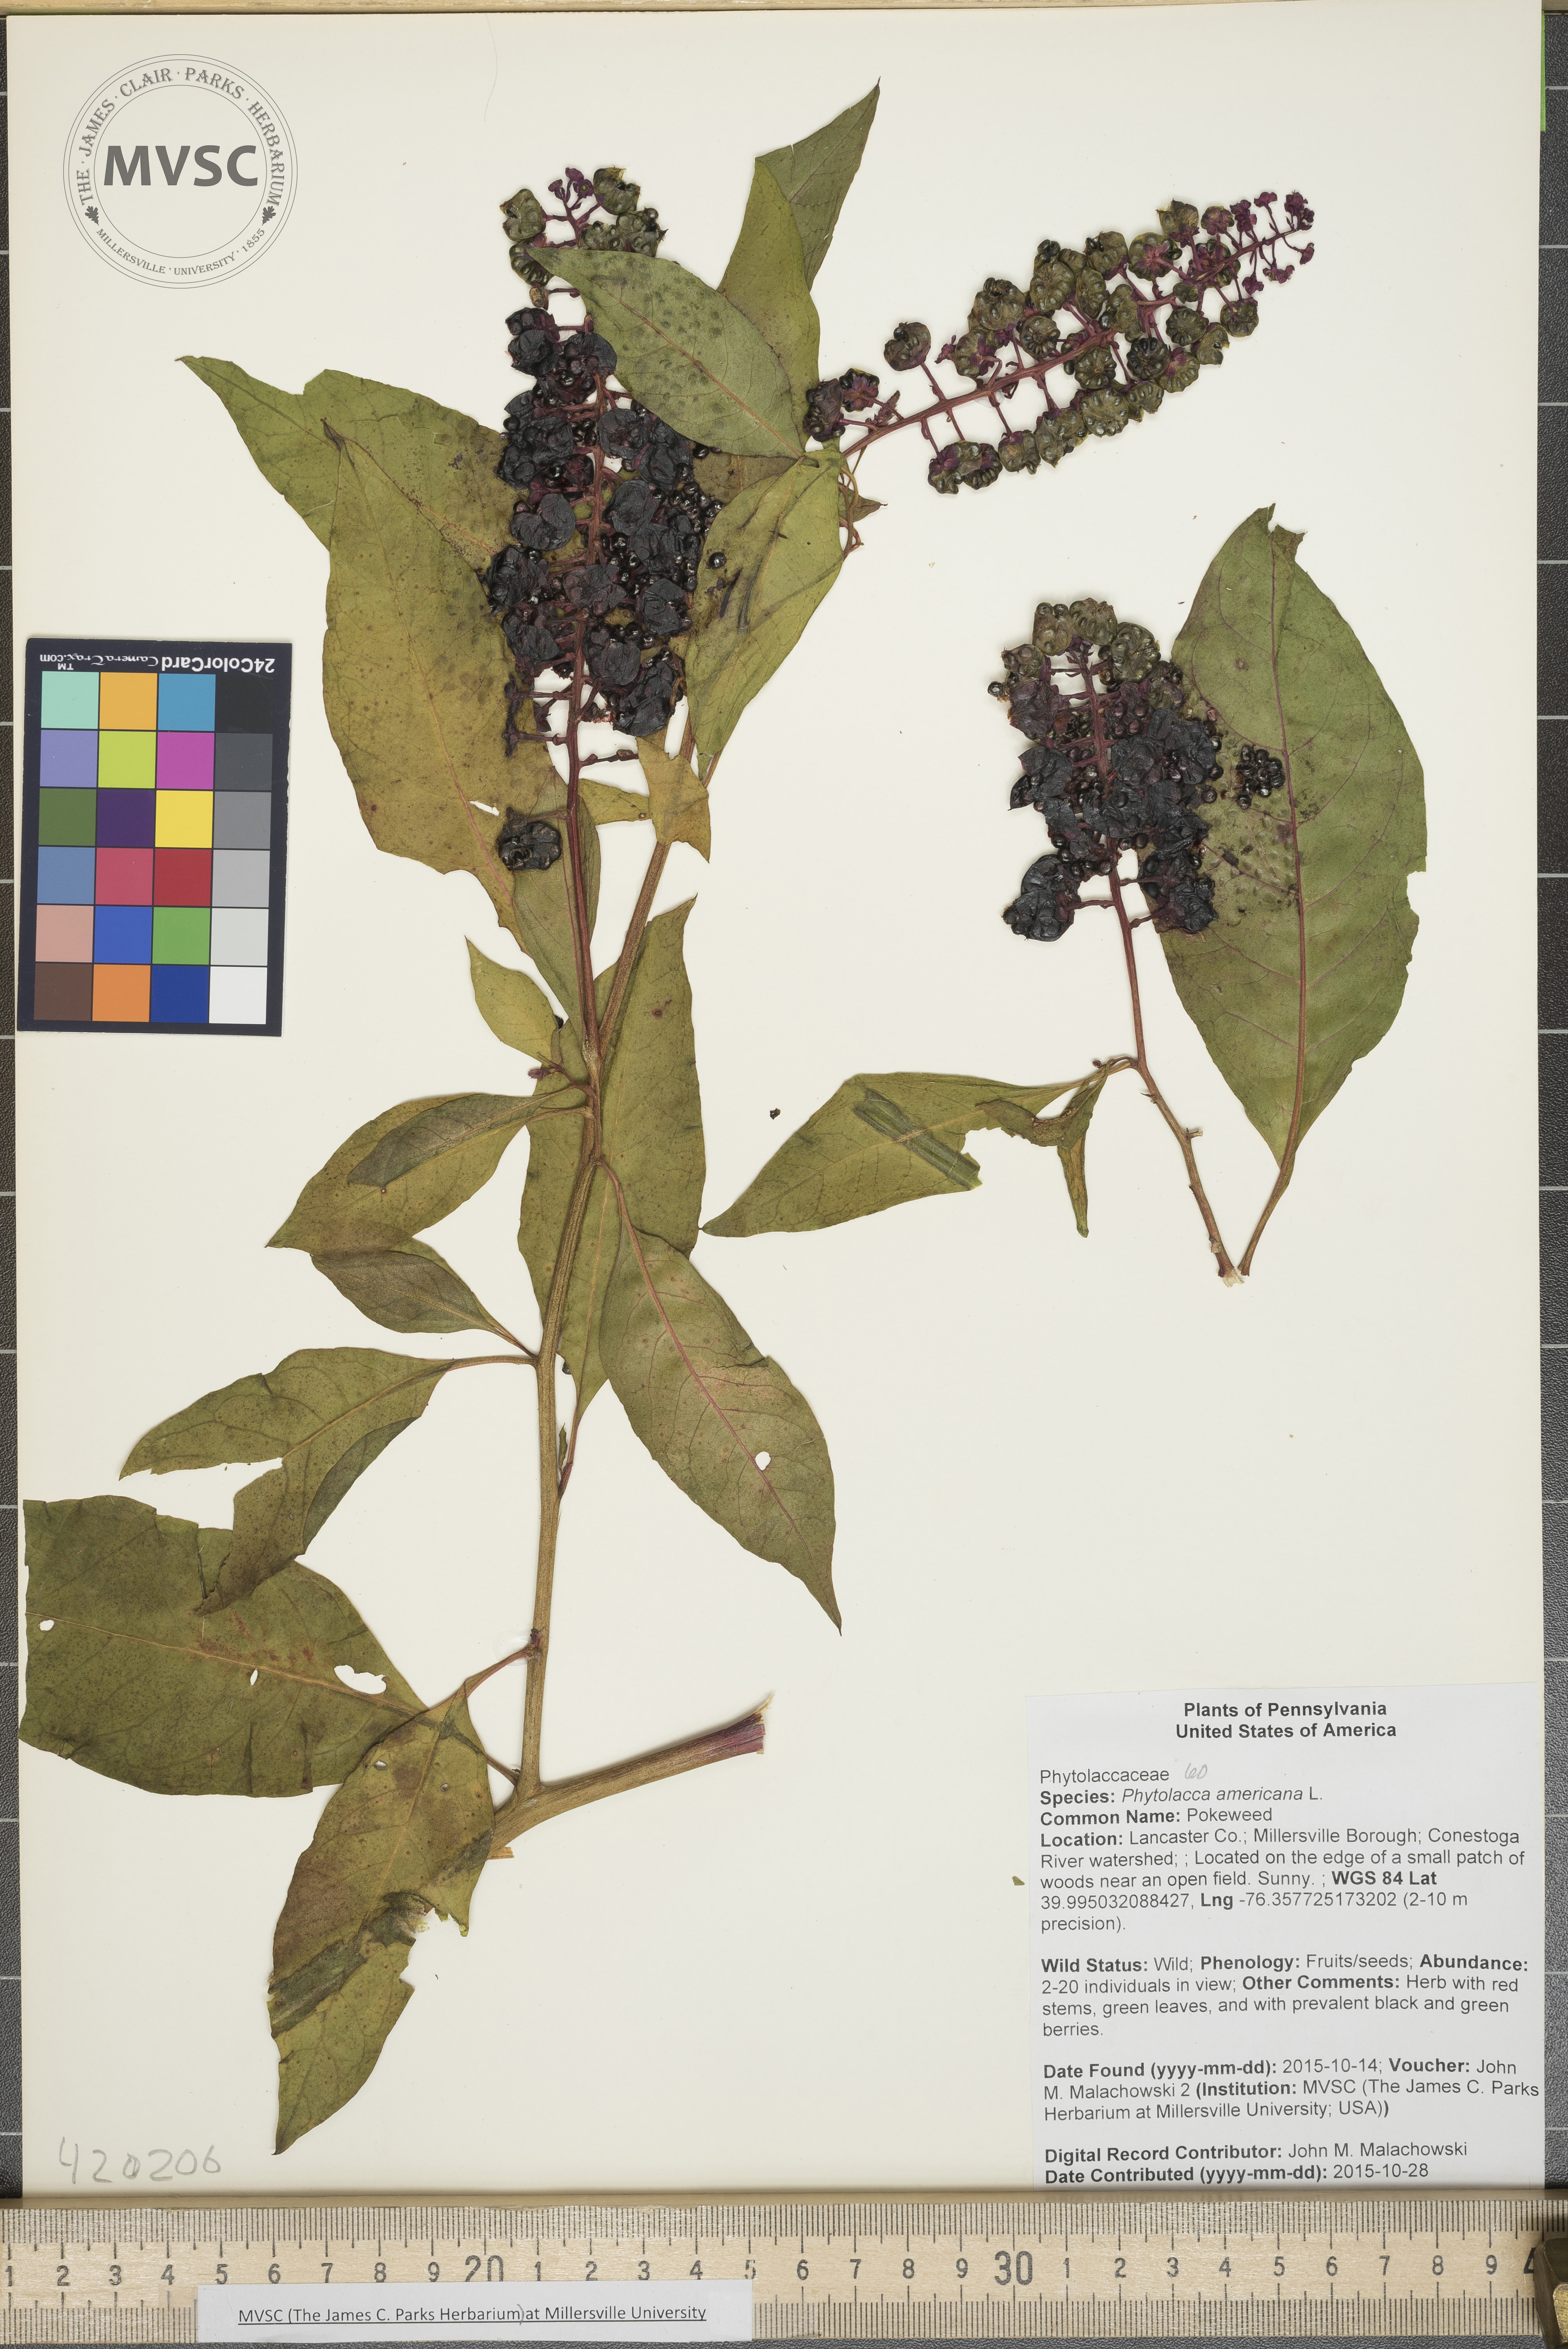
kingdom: Plantae
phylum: Tracheophyta
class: Magnoliopsida
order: Caryophyllales
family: Phytolaccaceae
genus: Phytolacca
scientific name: Phytolacca americana
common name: Pokeberry
